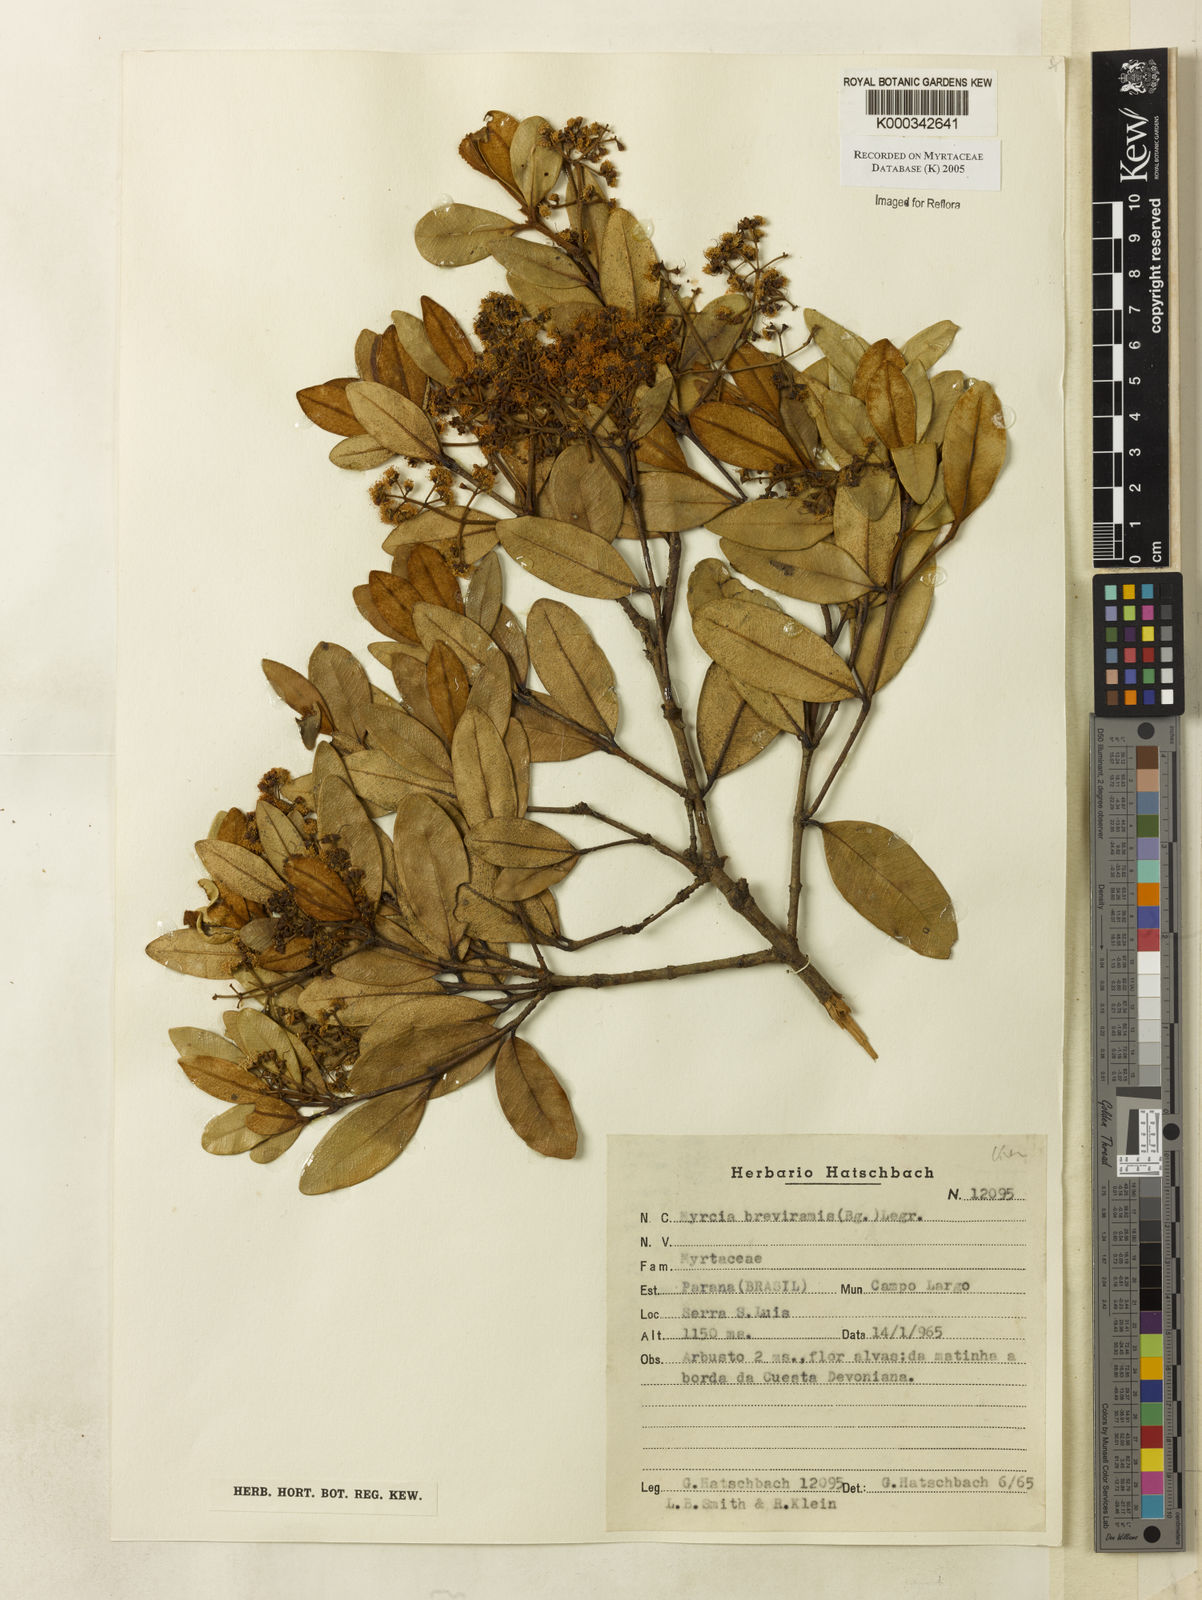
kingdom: Plantae
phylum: Tracheophyta
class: Magnoliopsida
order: Myrtales
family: Myrtaceae
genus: Myrcia
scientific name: Myrcia pulchra
